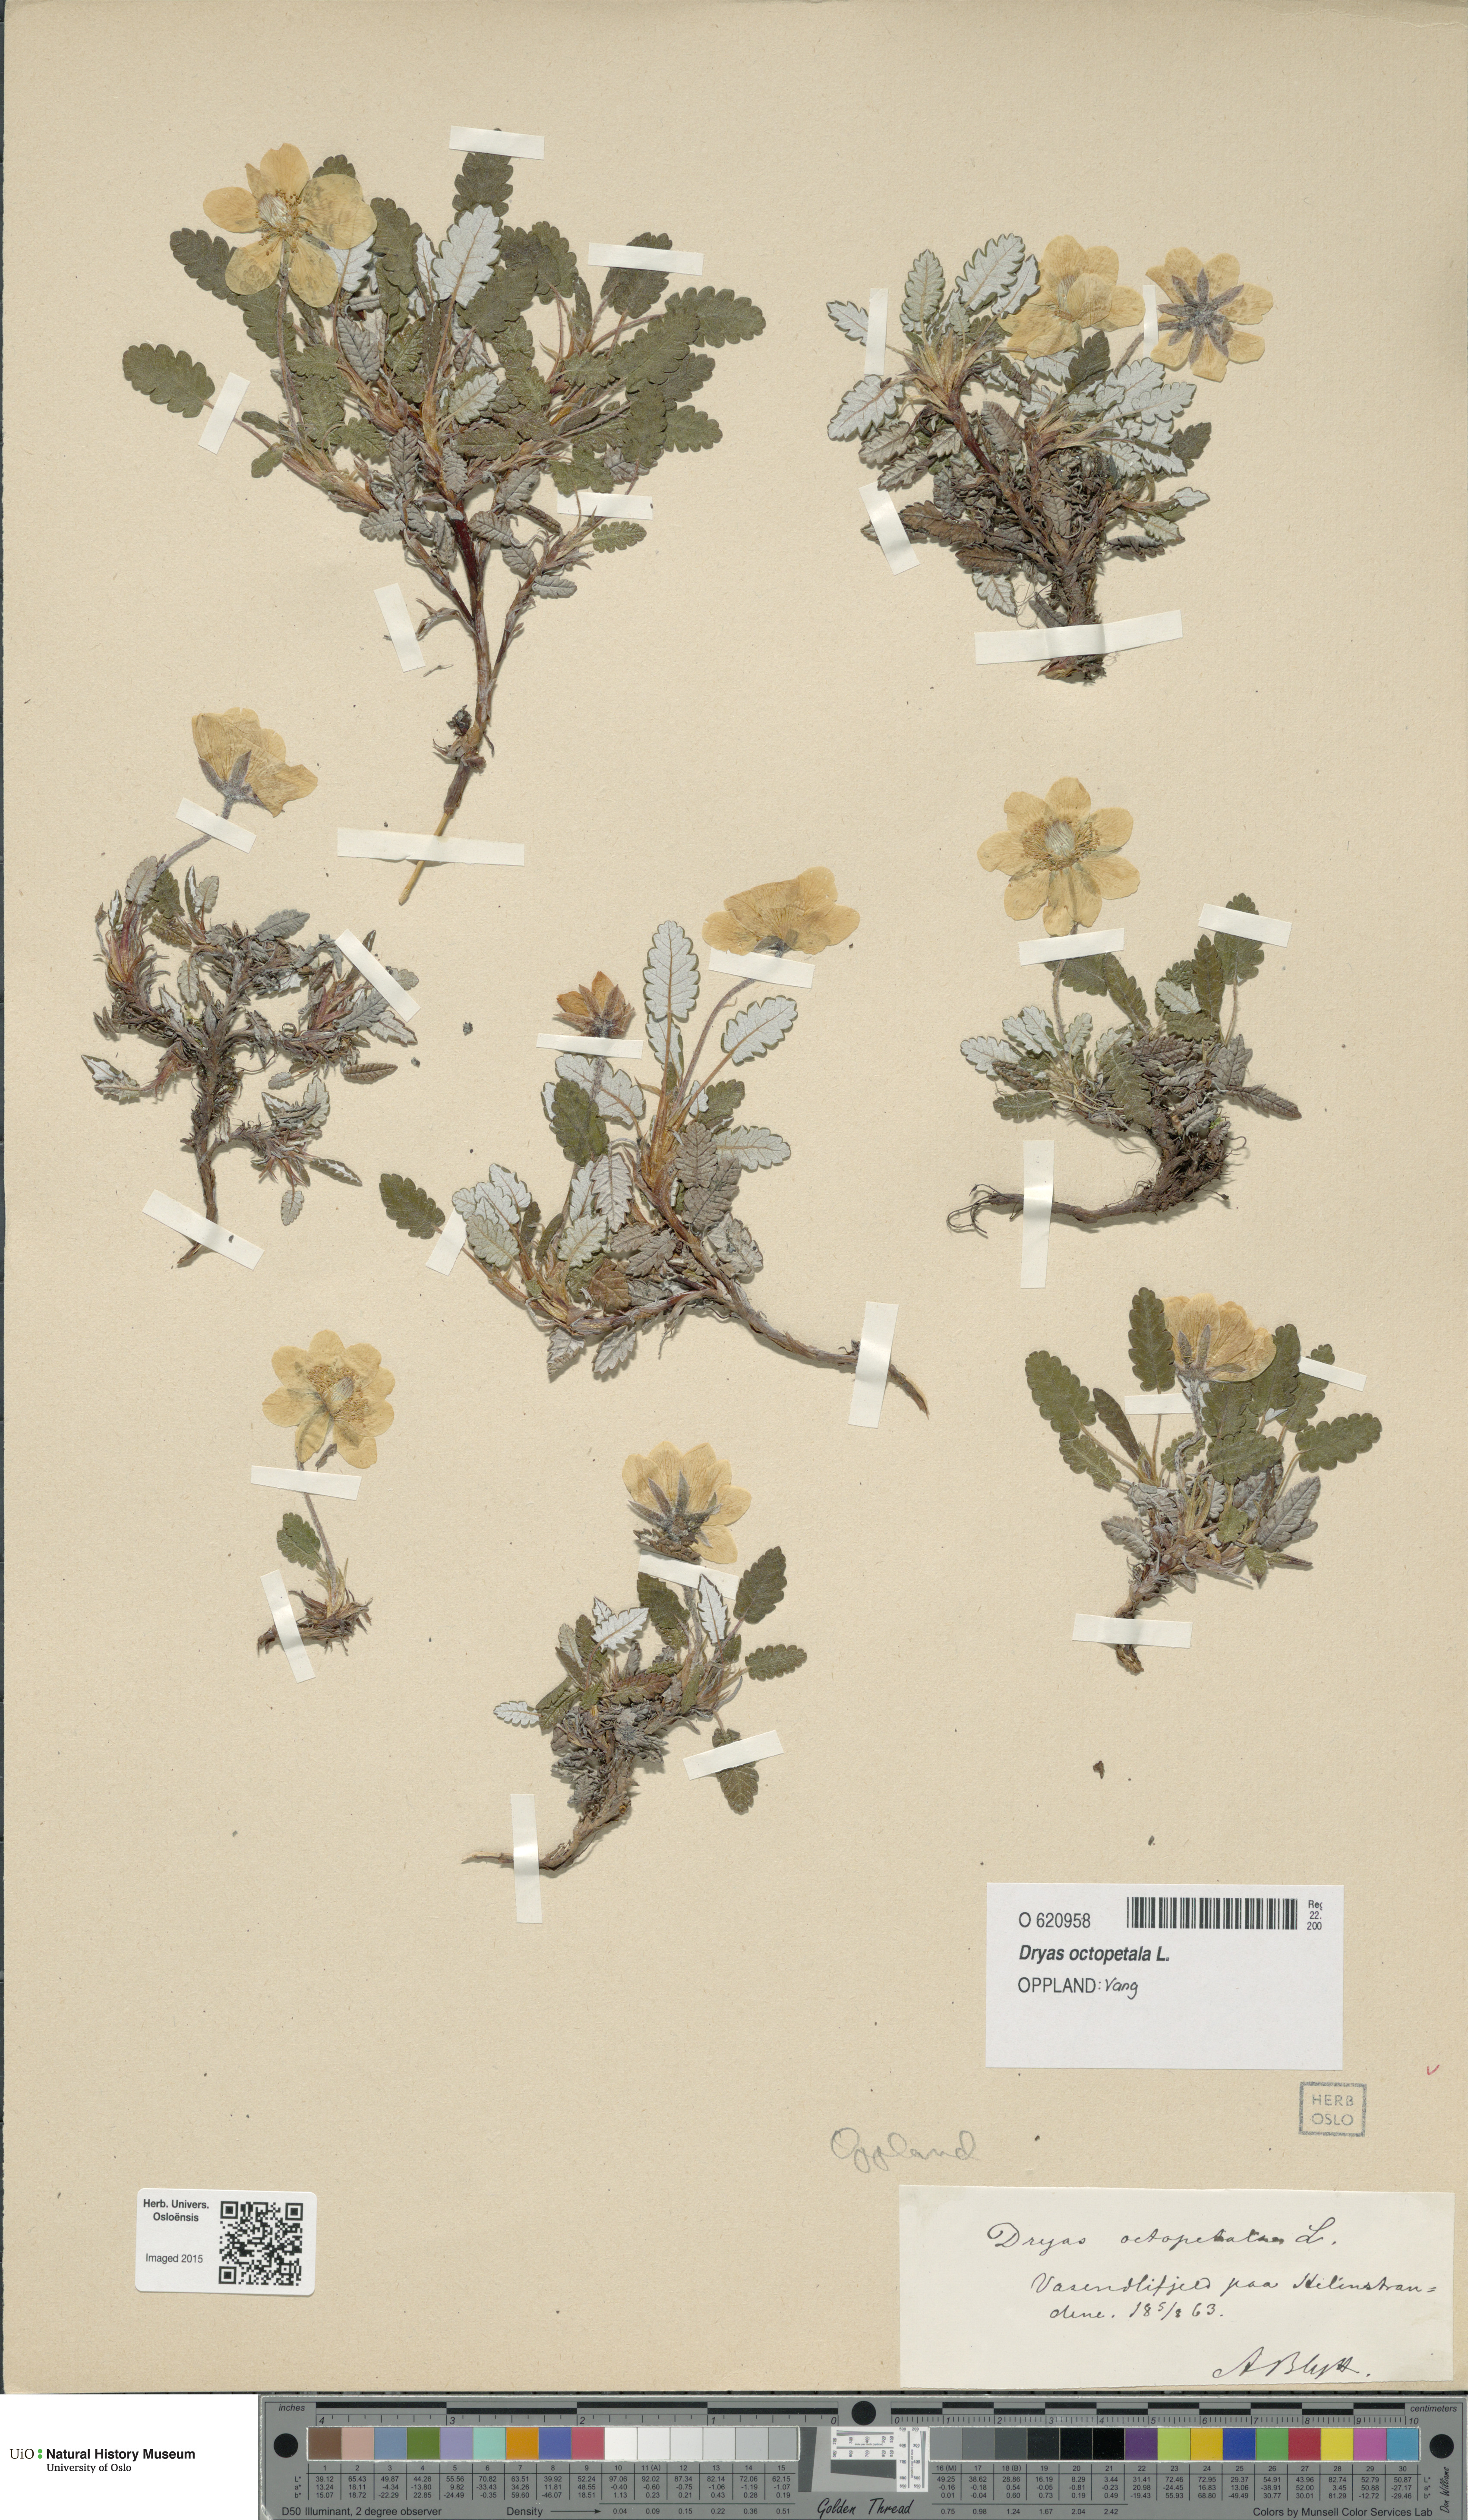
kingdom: Plantae
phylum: Tracheophyta
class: Magnoliopsida
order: Rosales
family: Rosaceae
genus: Dryas
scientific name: Dryas octopetala
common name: Eight-petal mountain-avens
